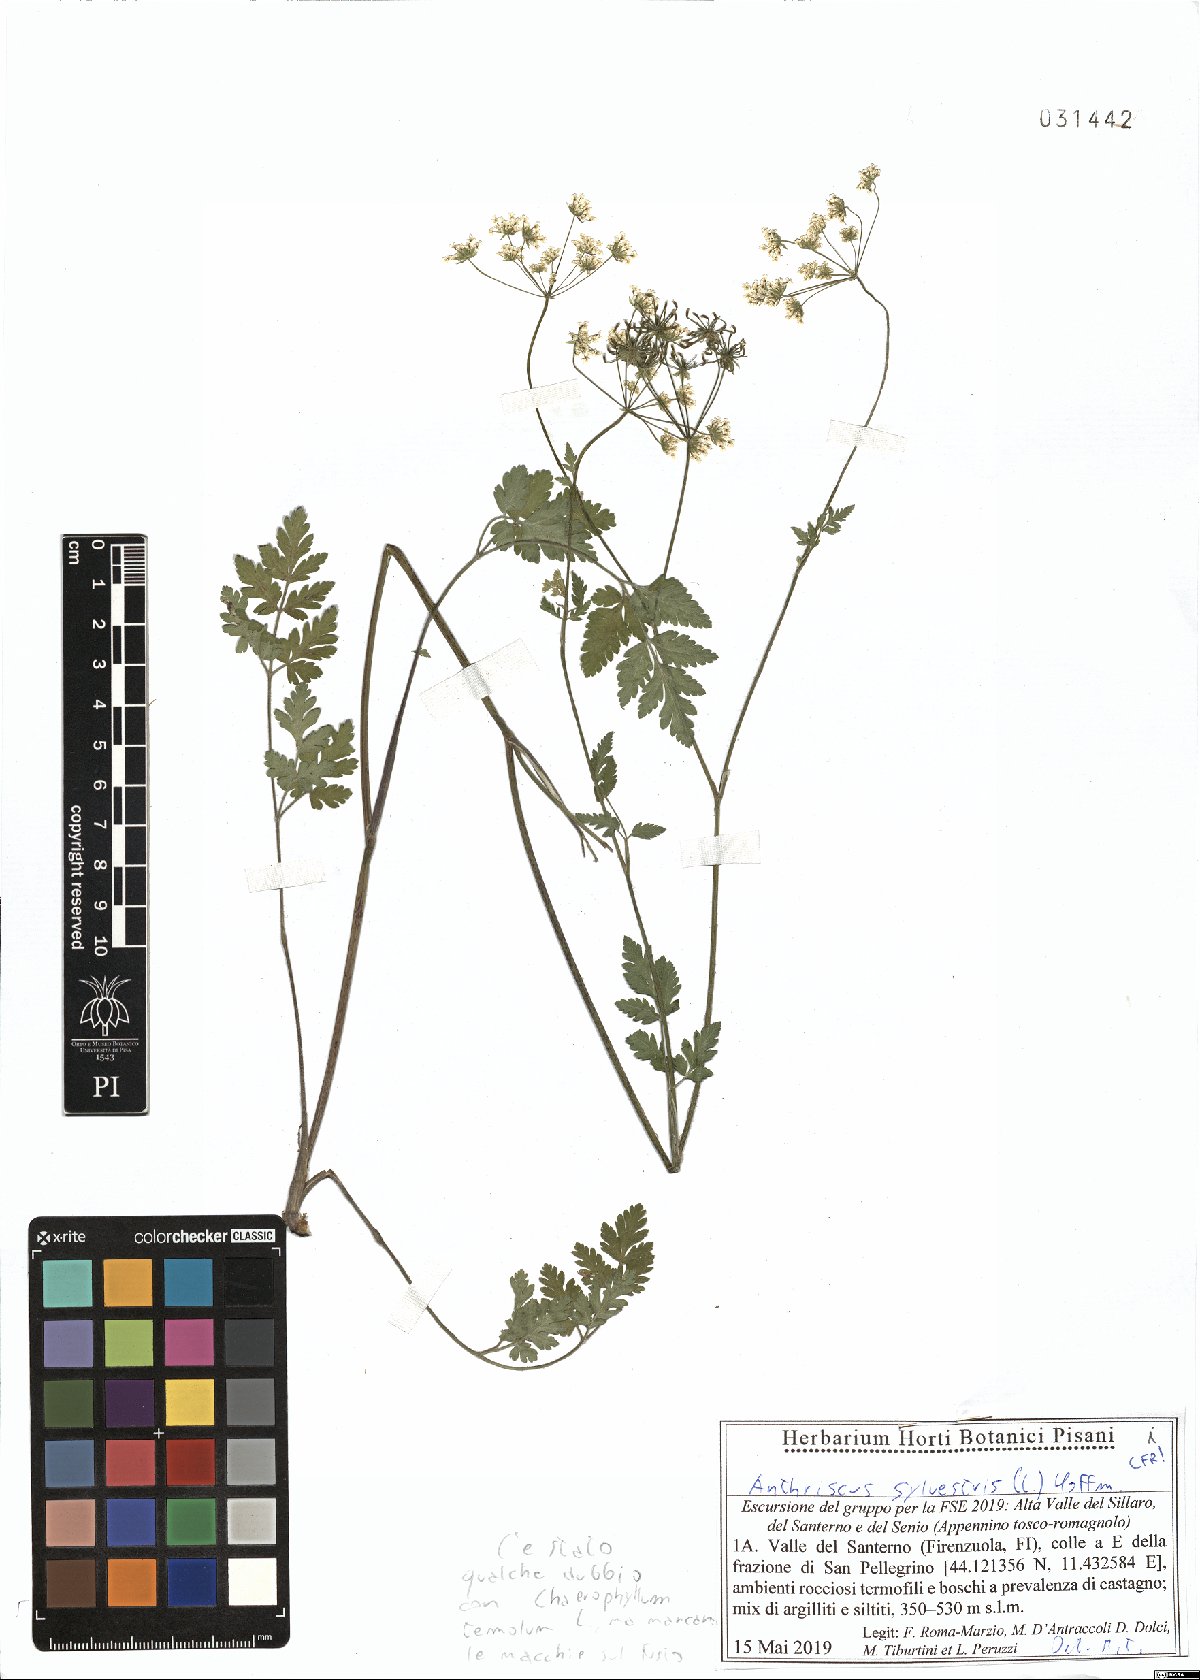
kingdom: Plantae
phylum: Tracheophyta
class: Magnoliopsida
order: Apiales
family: Apiaceae
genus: Anthriscus
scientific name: Anthriscus sylvestris
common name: Cow parsley
